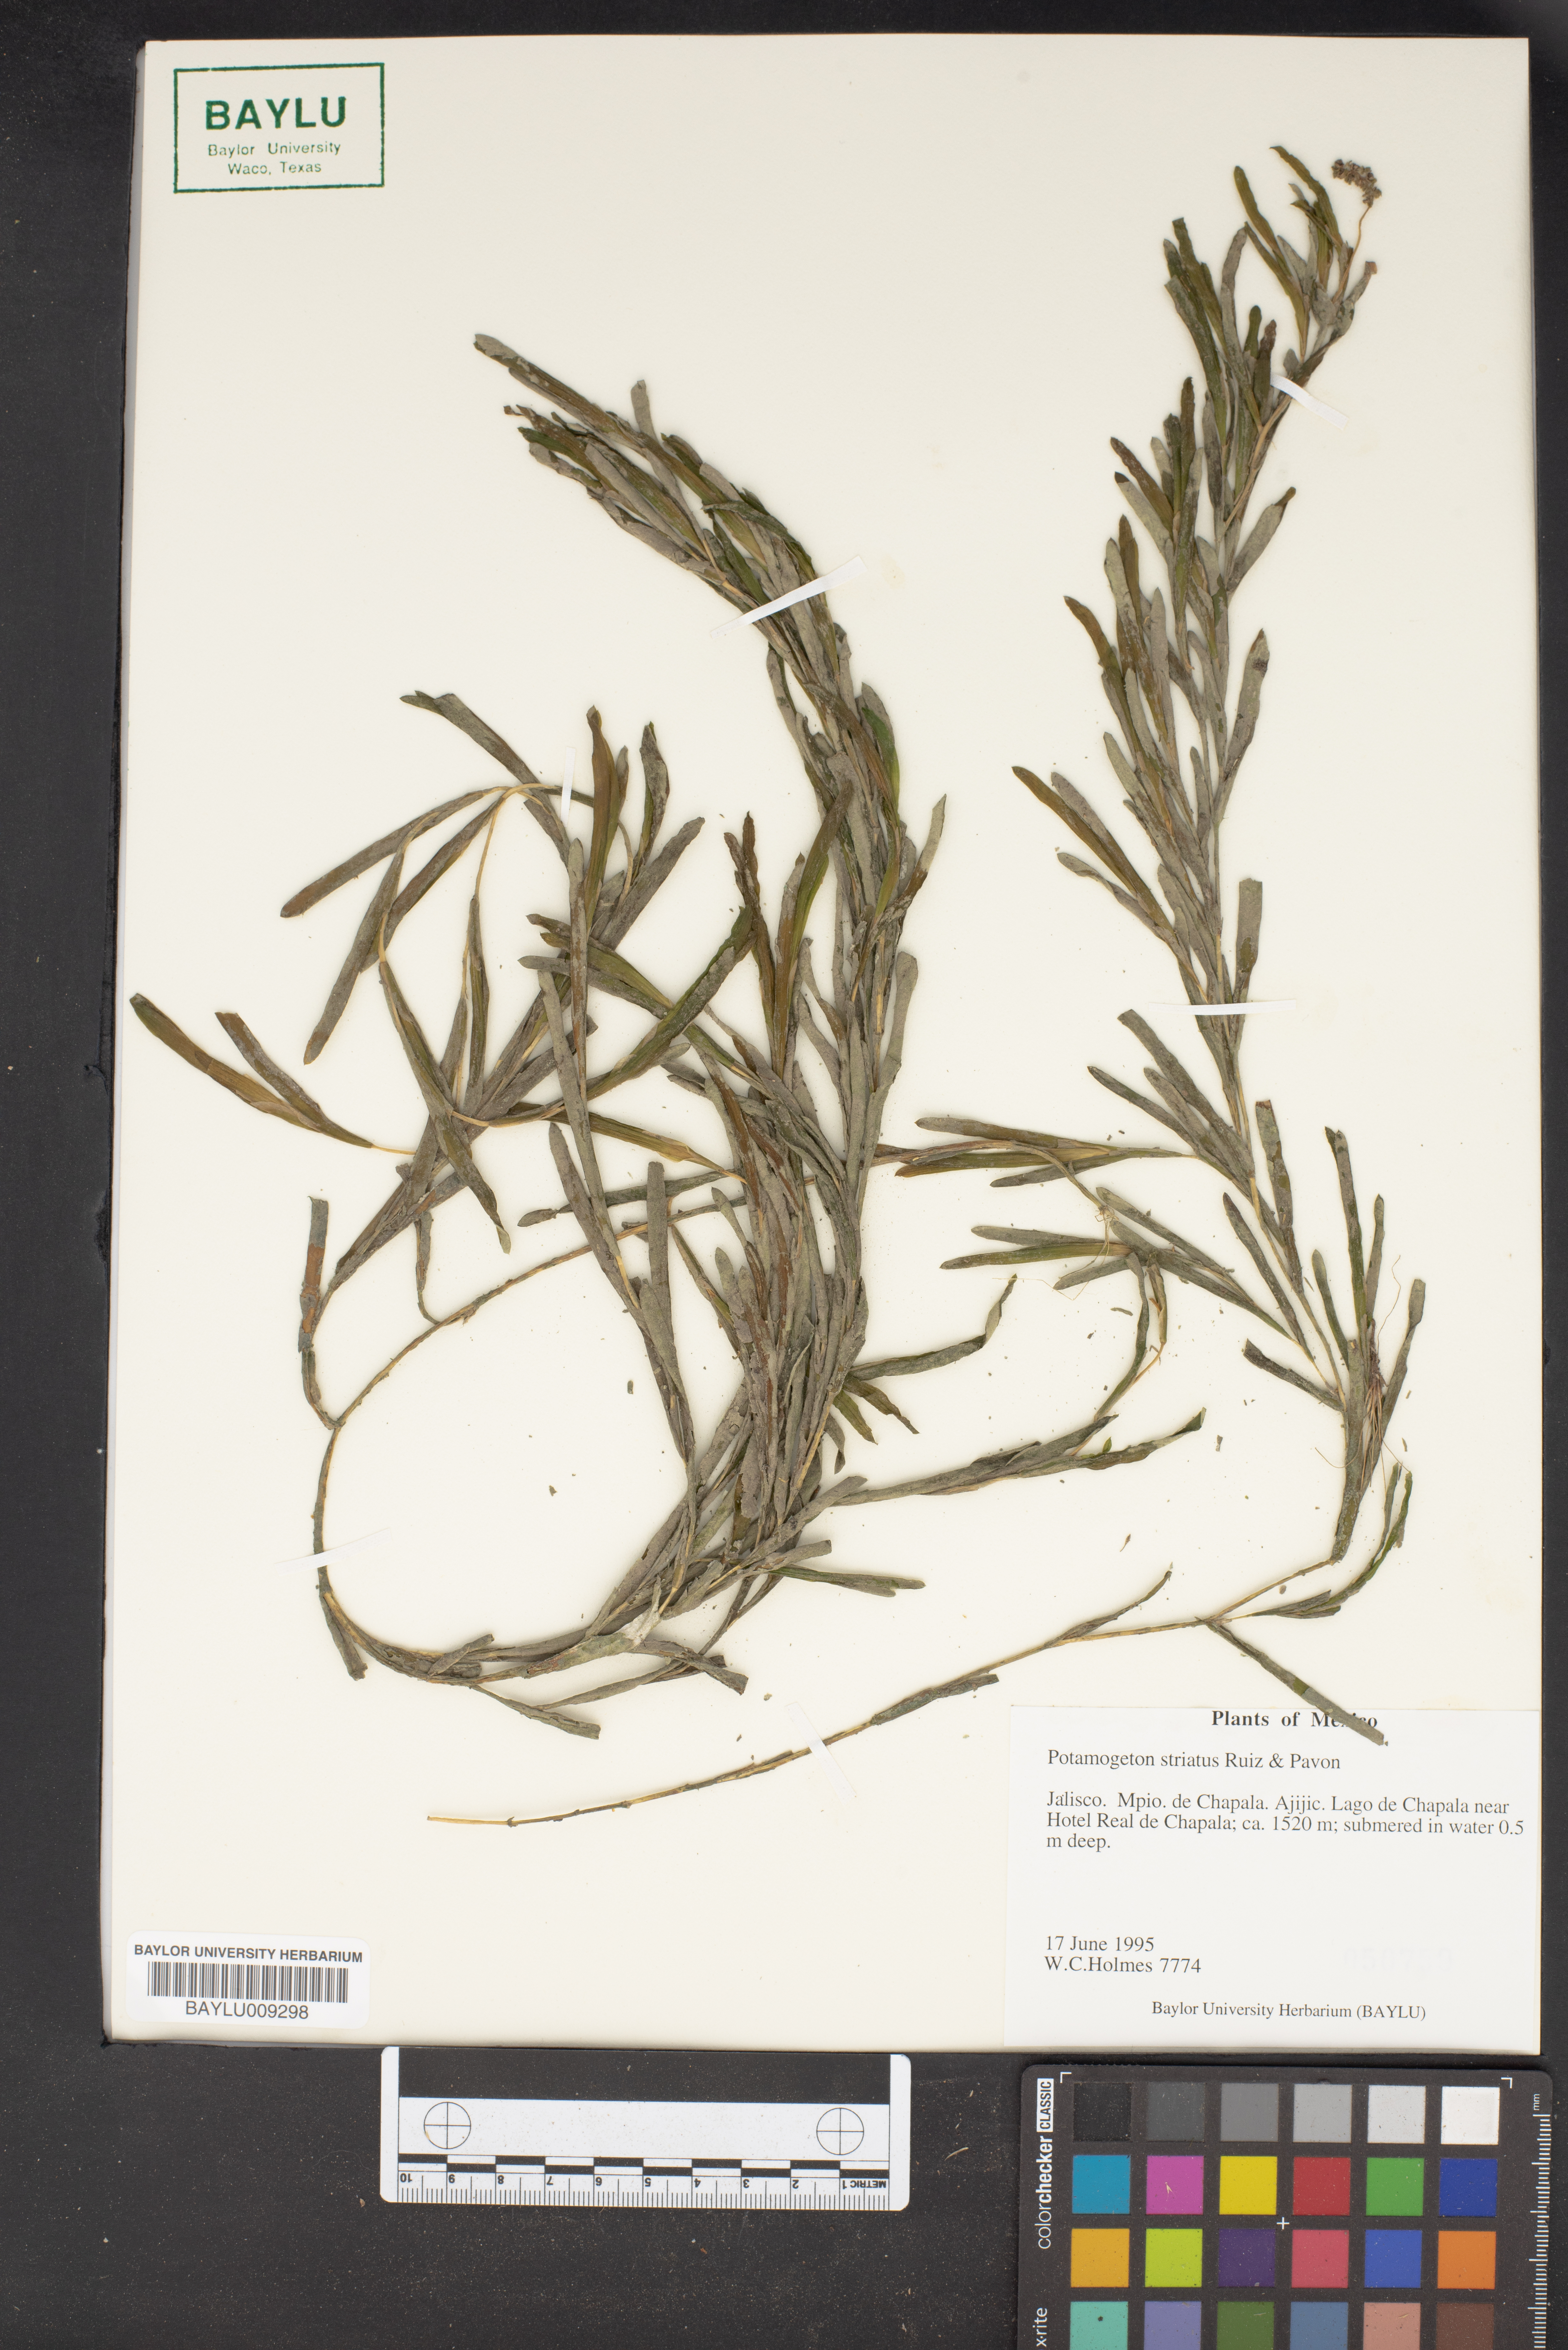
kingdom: Plantae
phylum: Tracheophyta
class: Liliopsida
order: Alismatales
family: Potamogetonaceae
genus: Stuckenia
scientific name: Stuckenia striata
